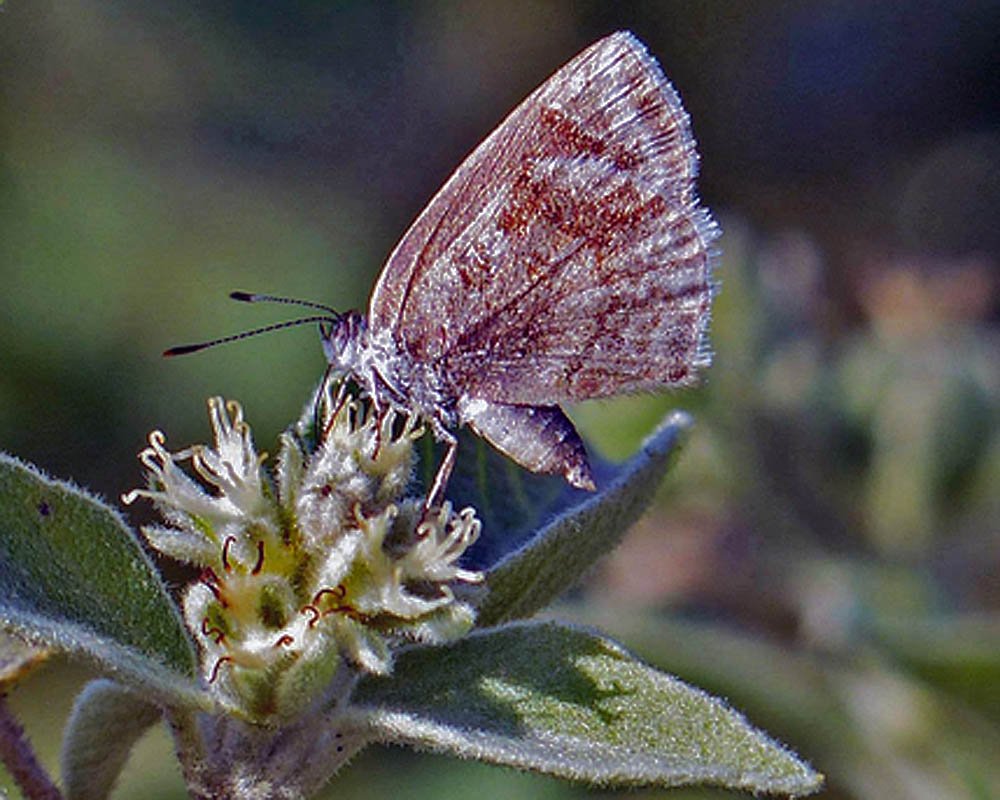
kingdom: Animalia
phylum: Arthropoda
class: Insecta
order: Lepidoptera
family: Lycaenidae
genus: Strymon
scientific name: Strymon bazochii
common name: Lantana Scrub-Hairstreak
